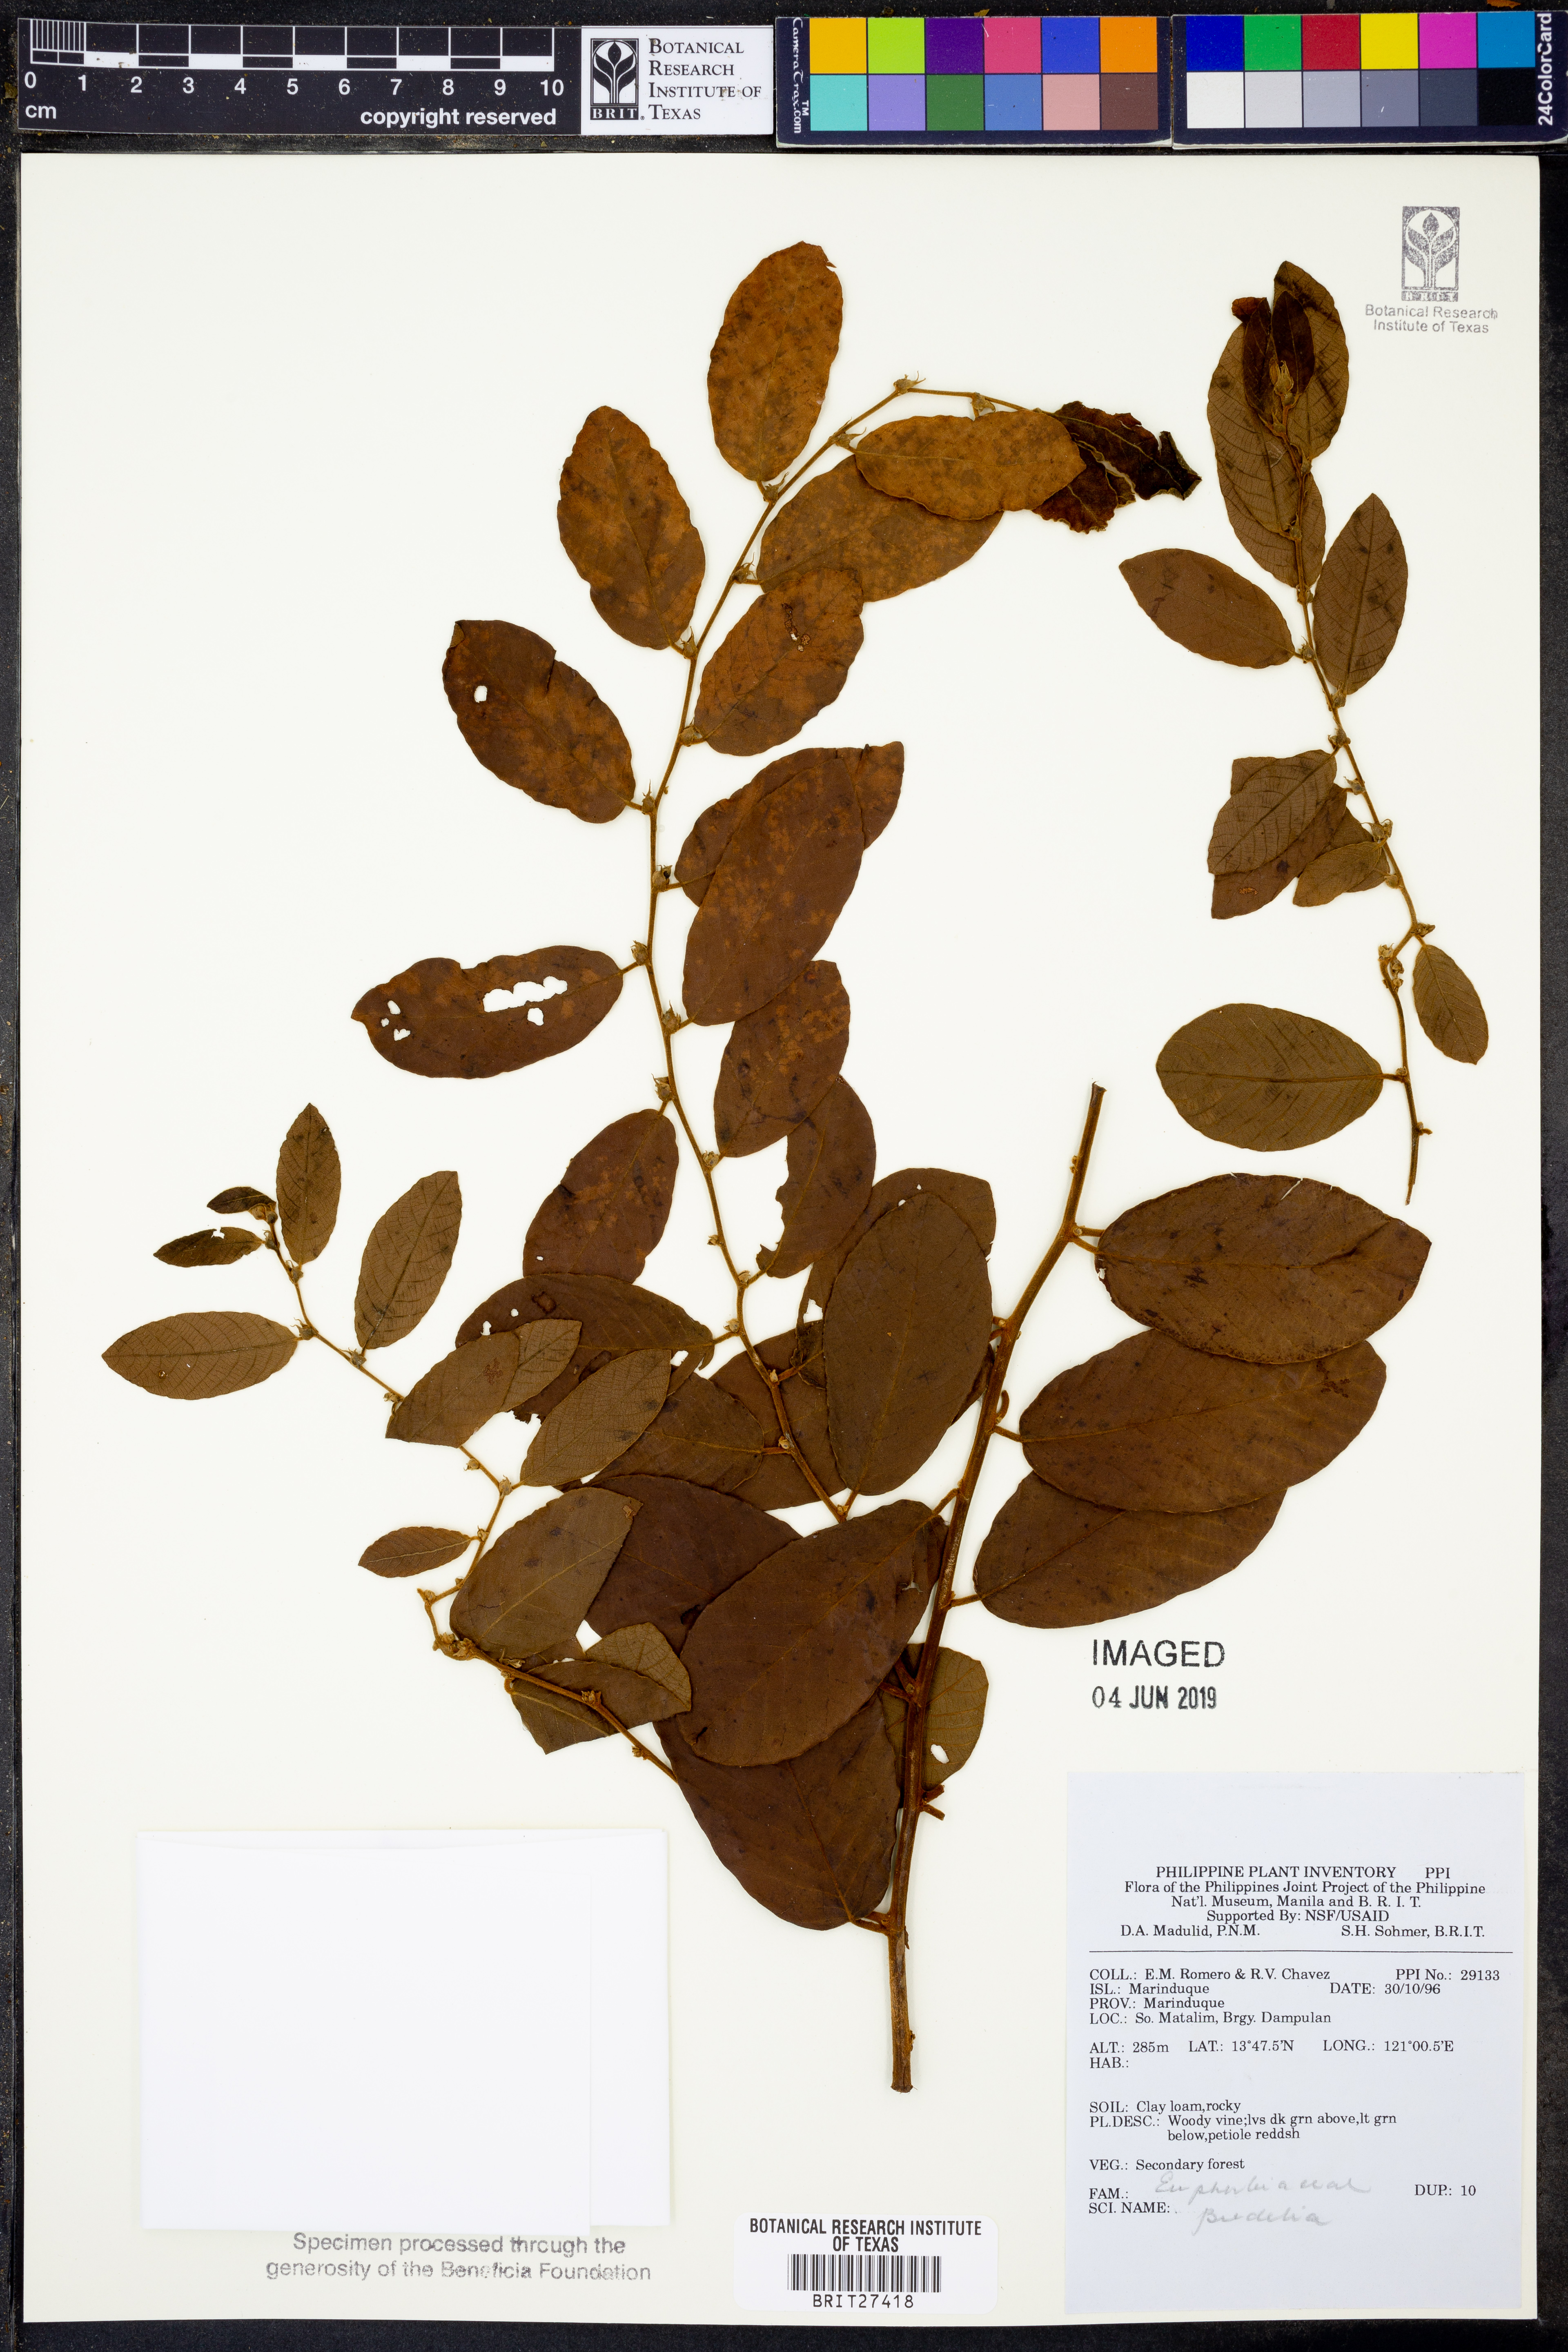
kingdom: Plantae
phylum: Tracheophyta
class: Magnoliopsida
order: Malpighiales
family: Phyllanthaceae
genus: Bridelia
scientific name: Bridelia
